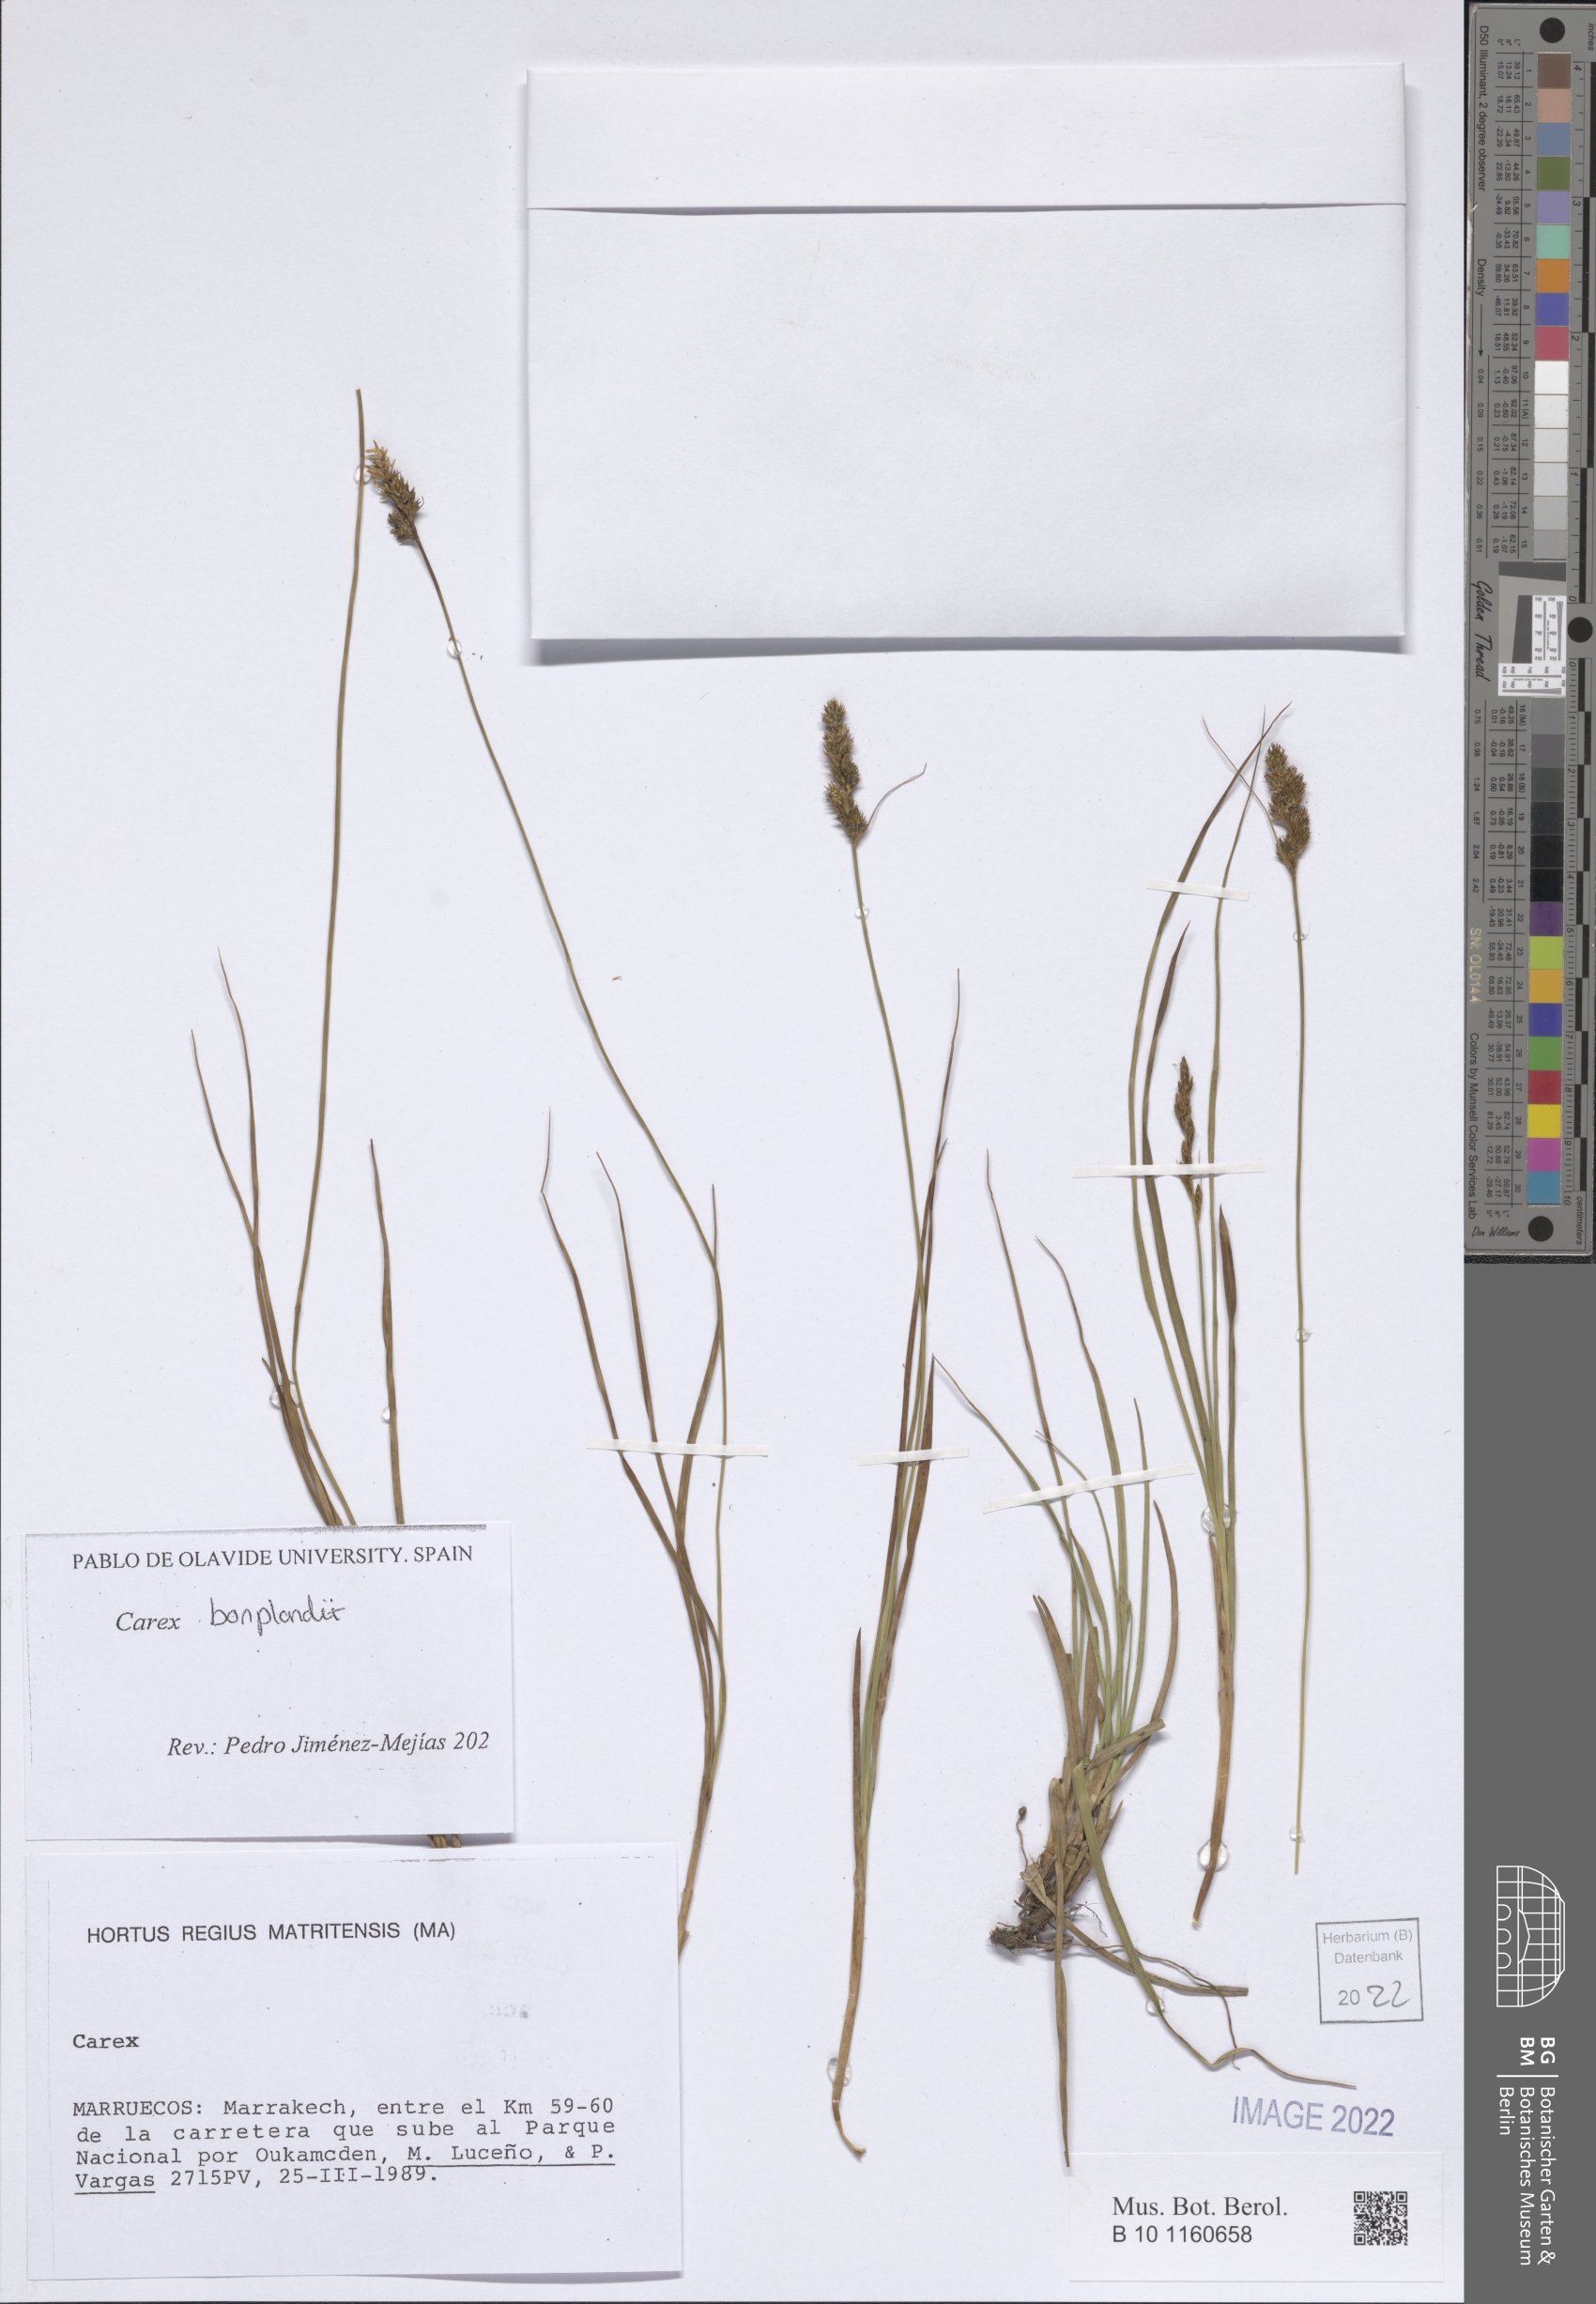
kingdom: Plantae
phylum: Tracheophyta
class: Liliopsida
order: Poales
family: Cyperaceae
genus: Carex
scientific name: Carex bonplandii
